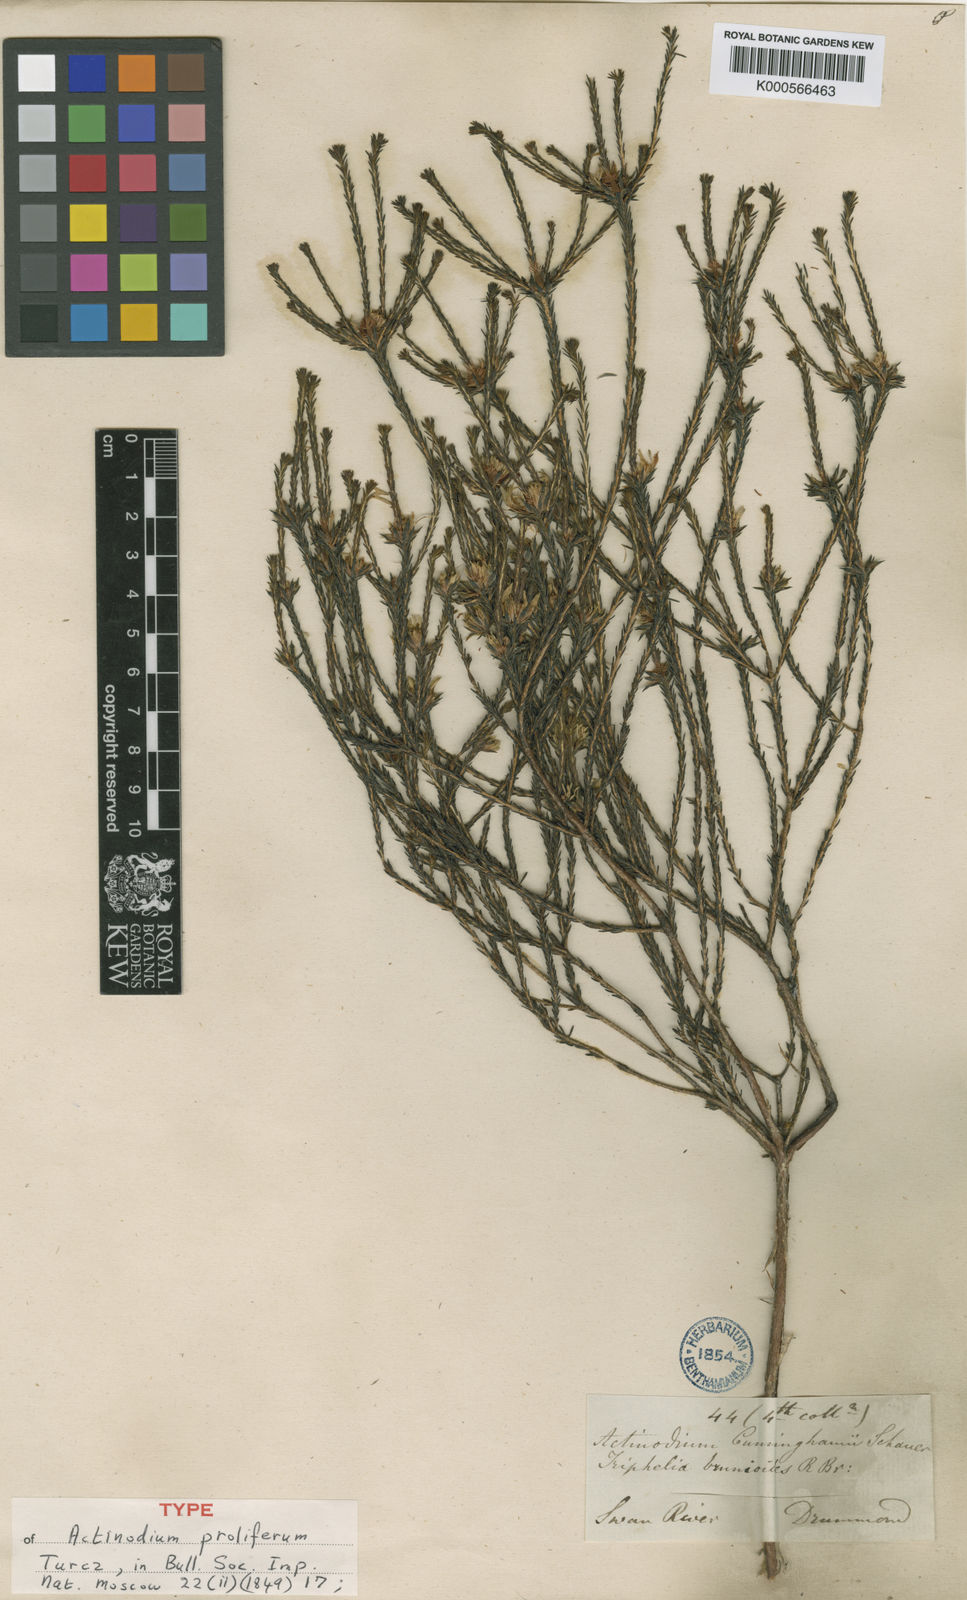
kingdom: Plantae
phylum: Tracheophyta
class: Magnoliopsida
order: Myrtales
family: Myrtaceae
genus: Actinodium
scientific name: Actinodium cunninghamii
